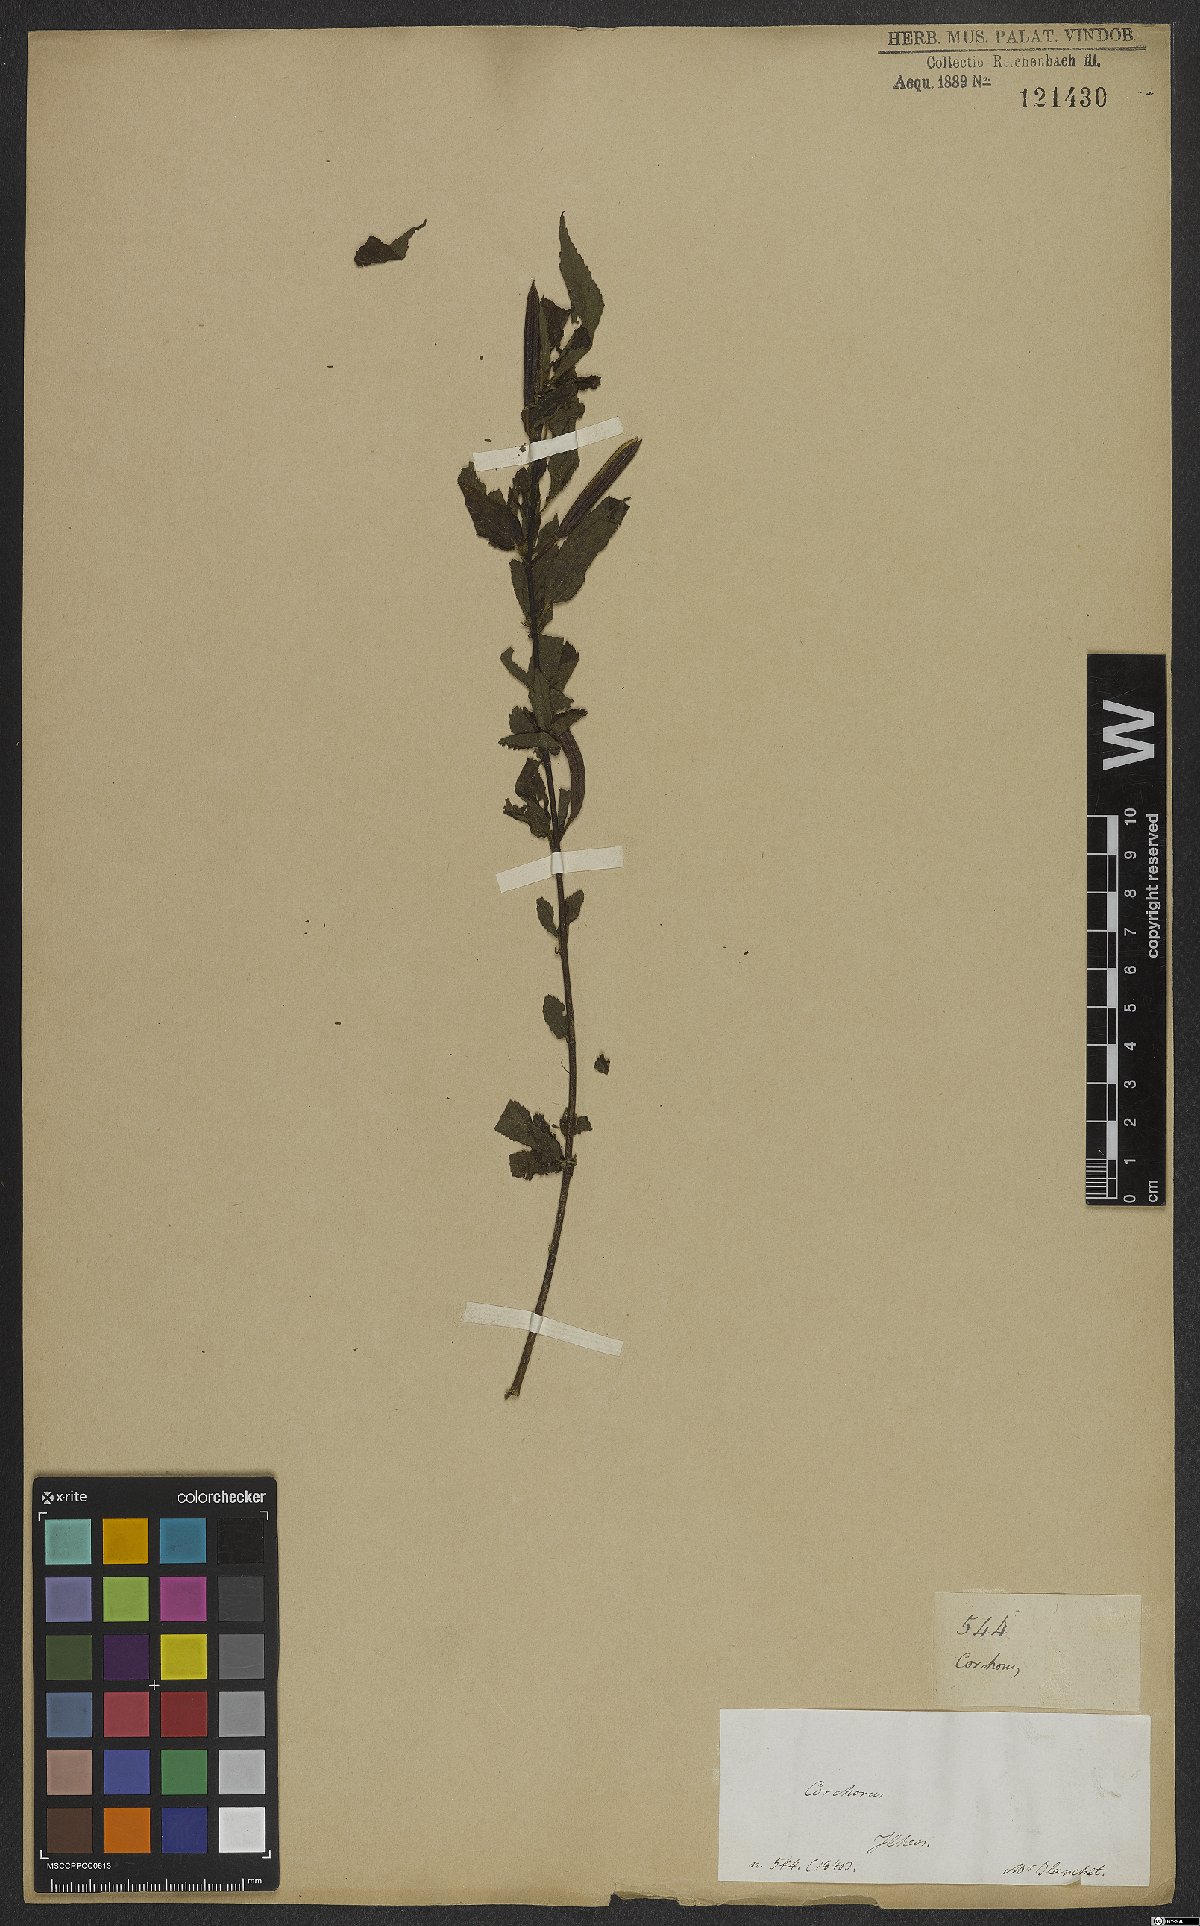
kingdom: Plantae
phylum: Tracheophyta
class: Magnoliopsida
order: Malvales
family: Malvaceae
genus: Corchorus
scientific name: Corchorus trilocularis
